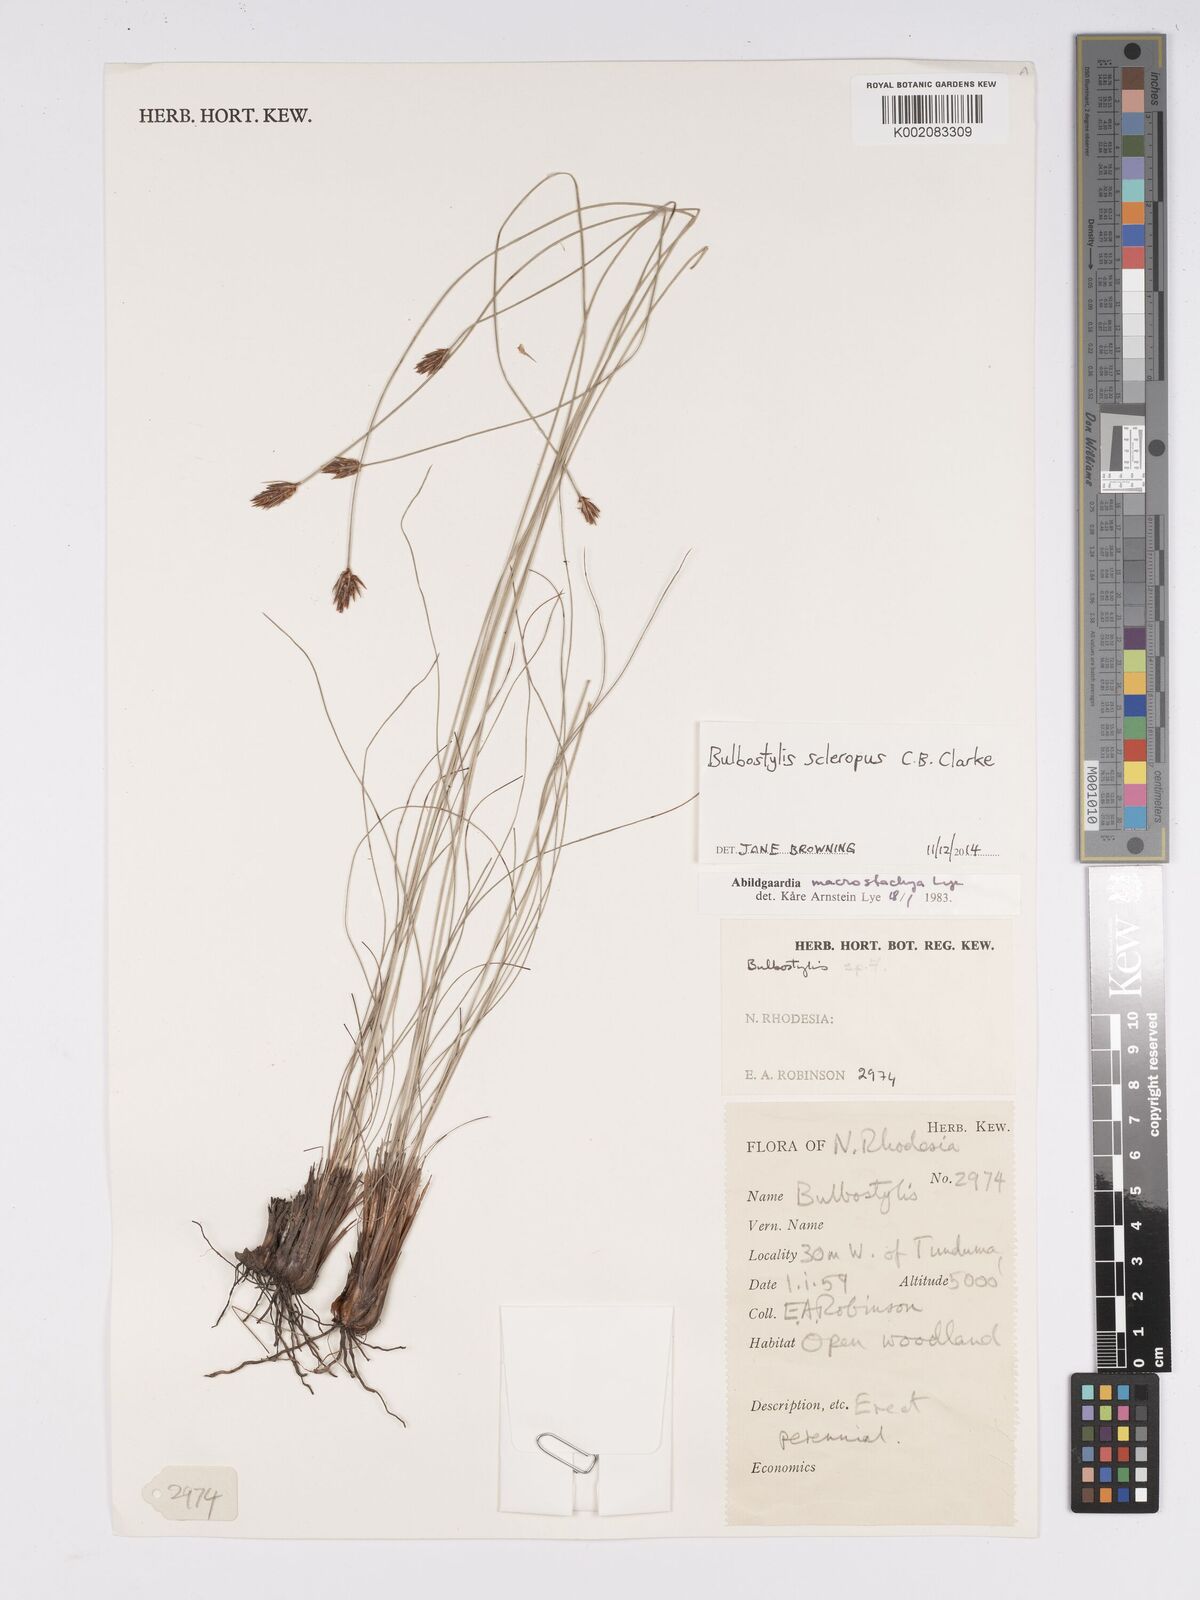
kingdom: Plantae
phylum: Tracheophyta
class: Liliopsida
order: Poales
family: Cyperaceae
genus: Bulbostylis
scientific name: Bulbostylis macrostachya
